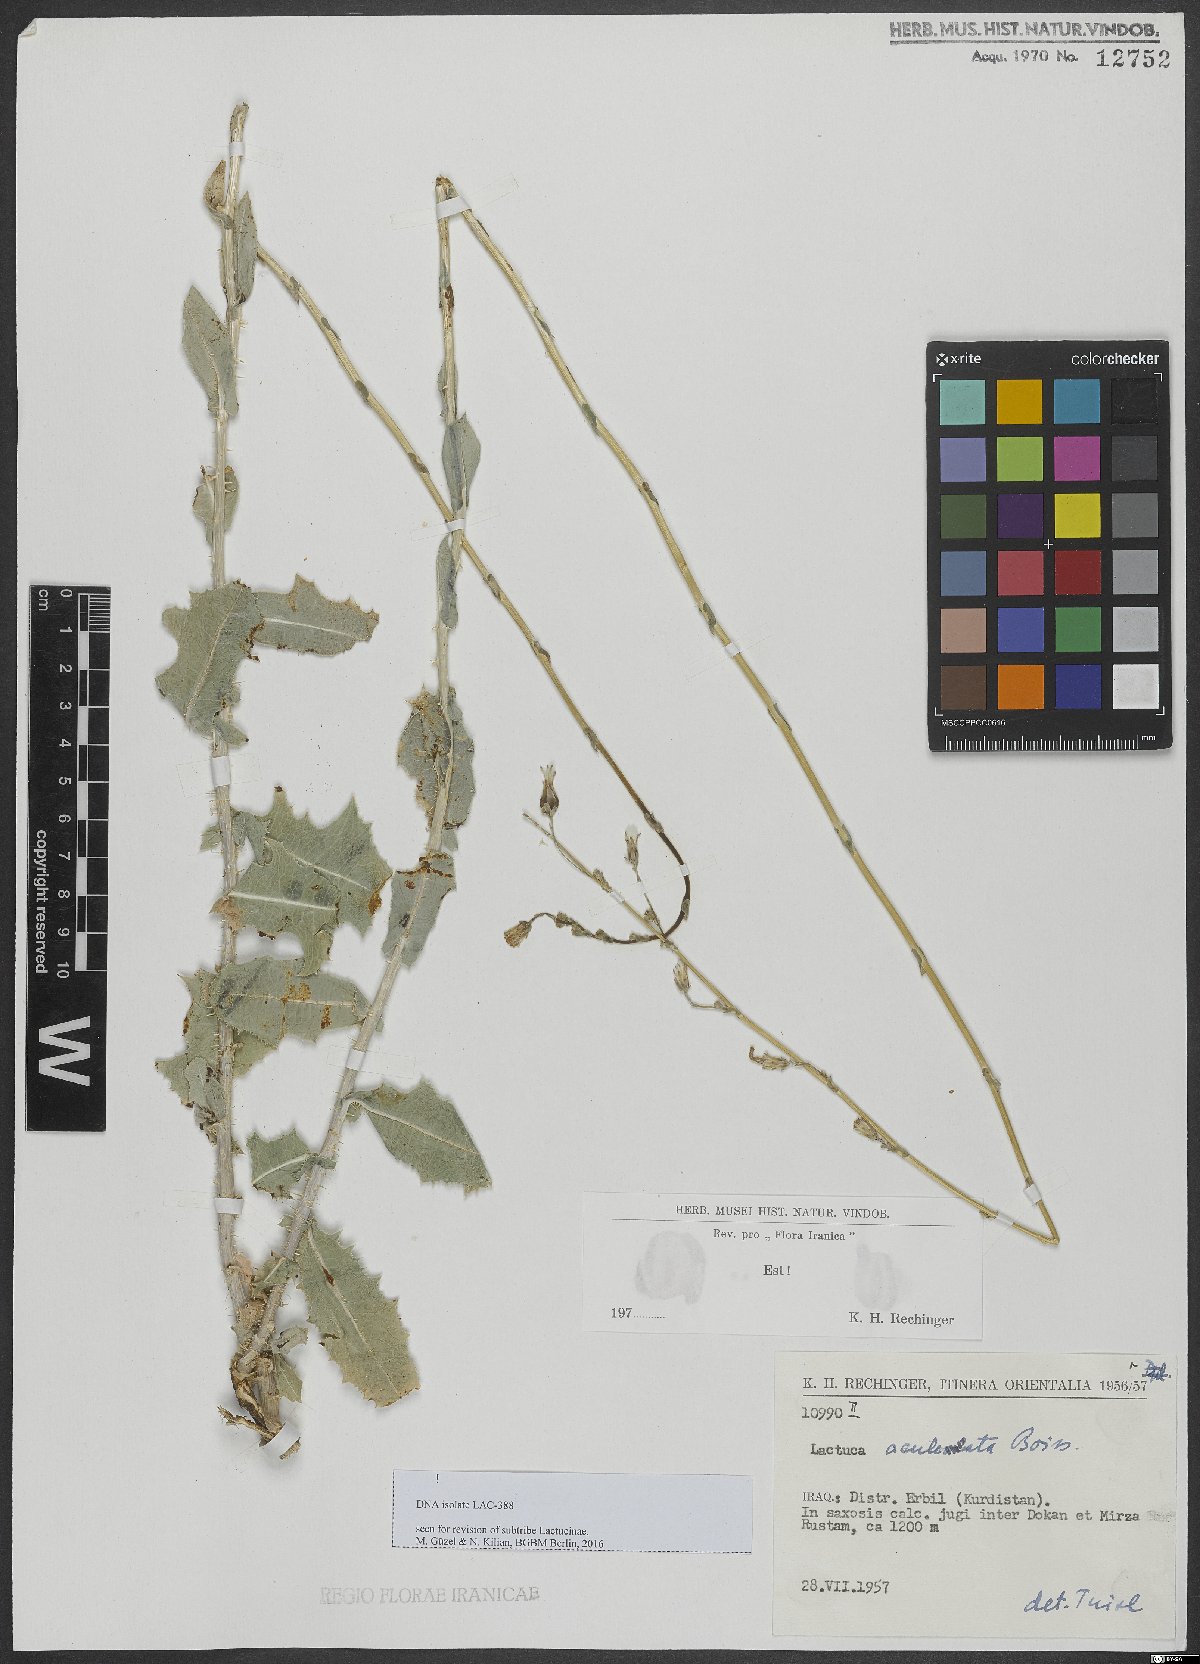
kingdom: Plantae
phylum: Tracheophyta
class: Magnoliopsida
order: Asterales
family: Asteraceae
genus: Lactuca
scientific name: Lactuca aculeata
